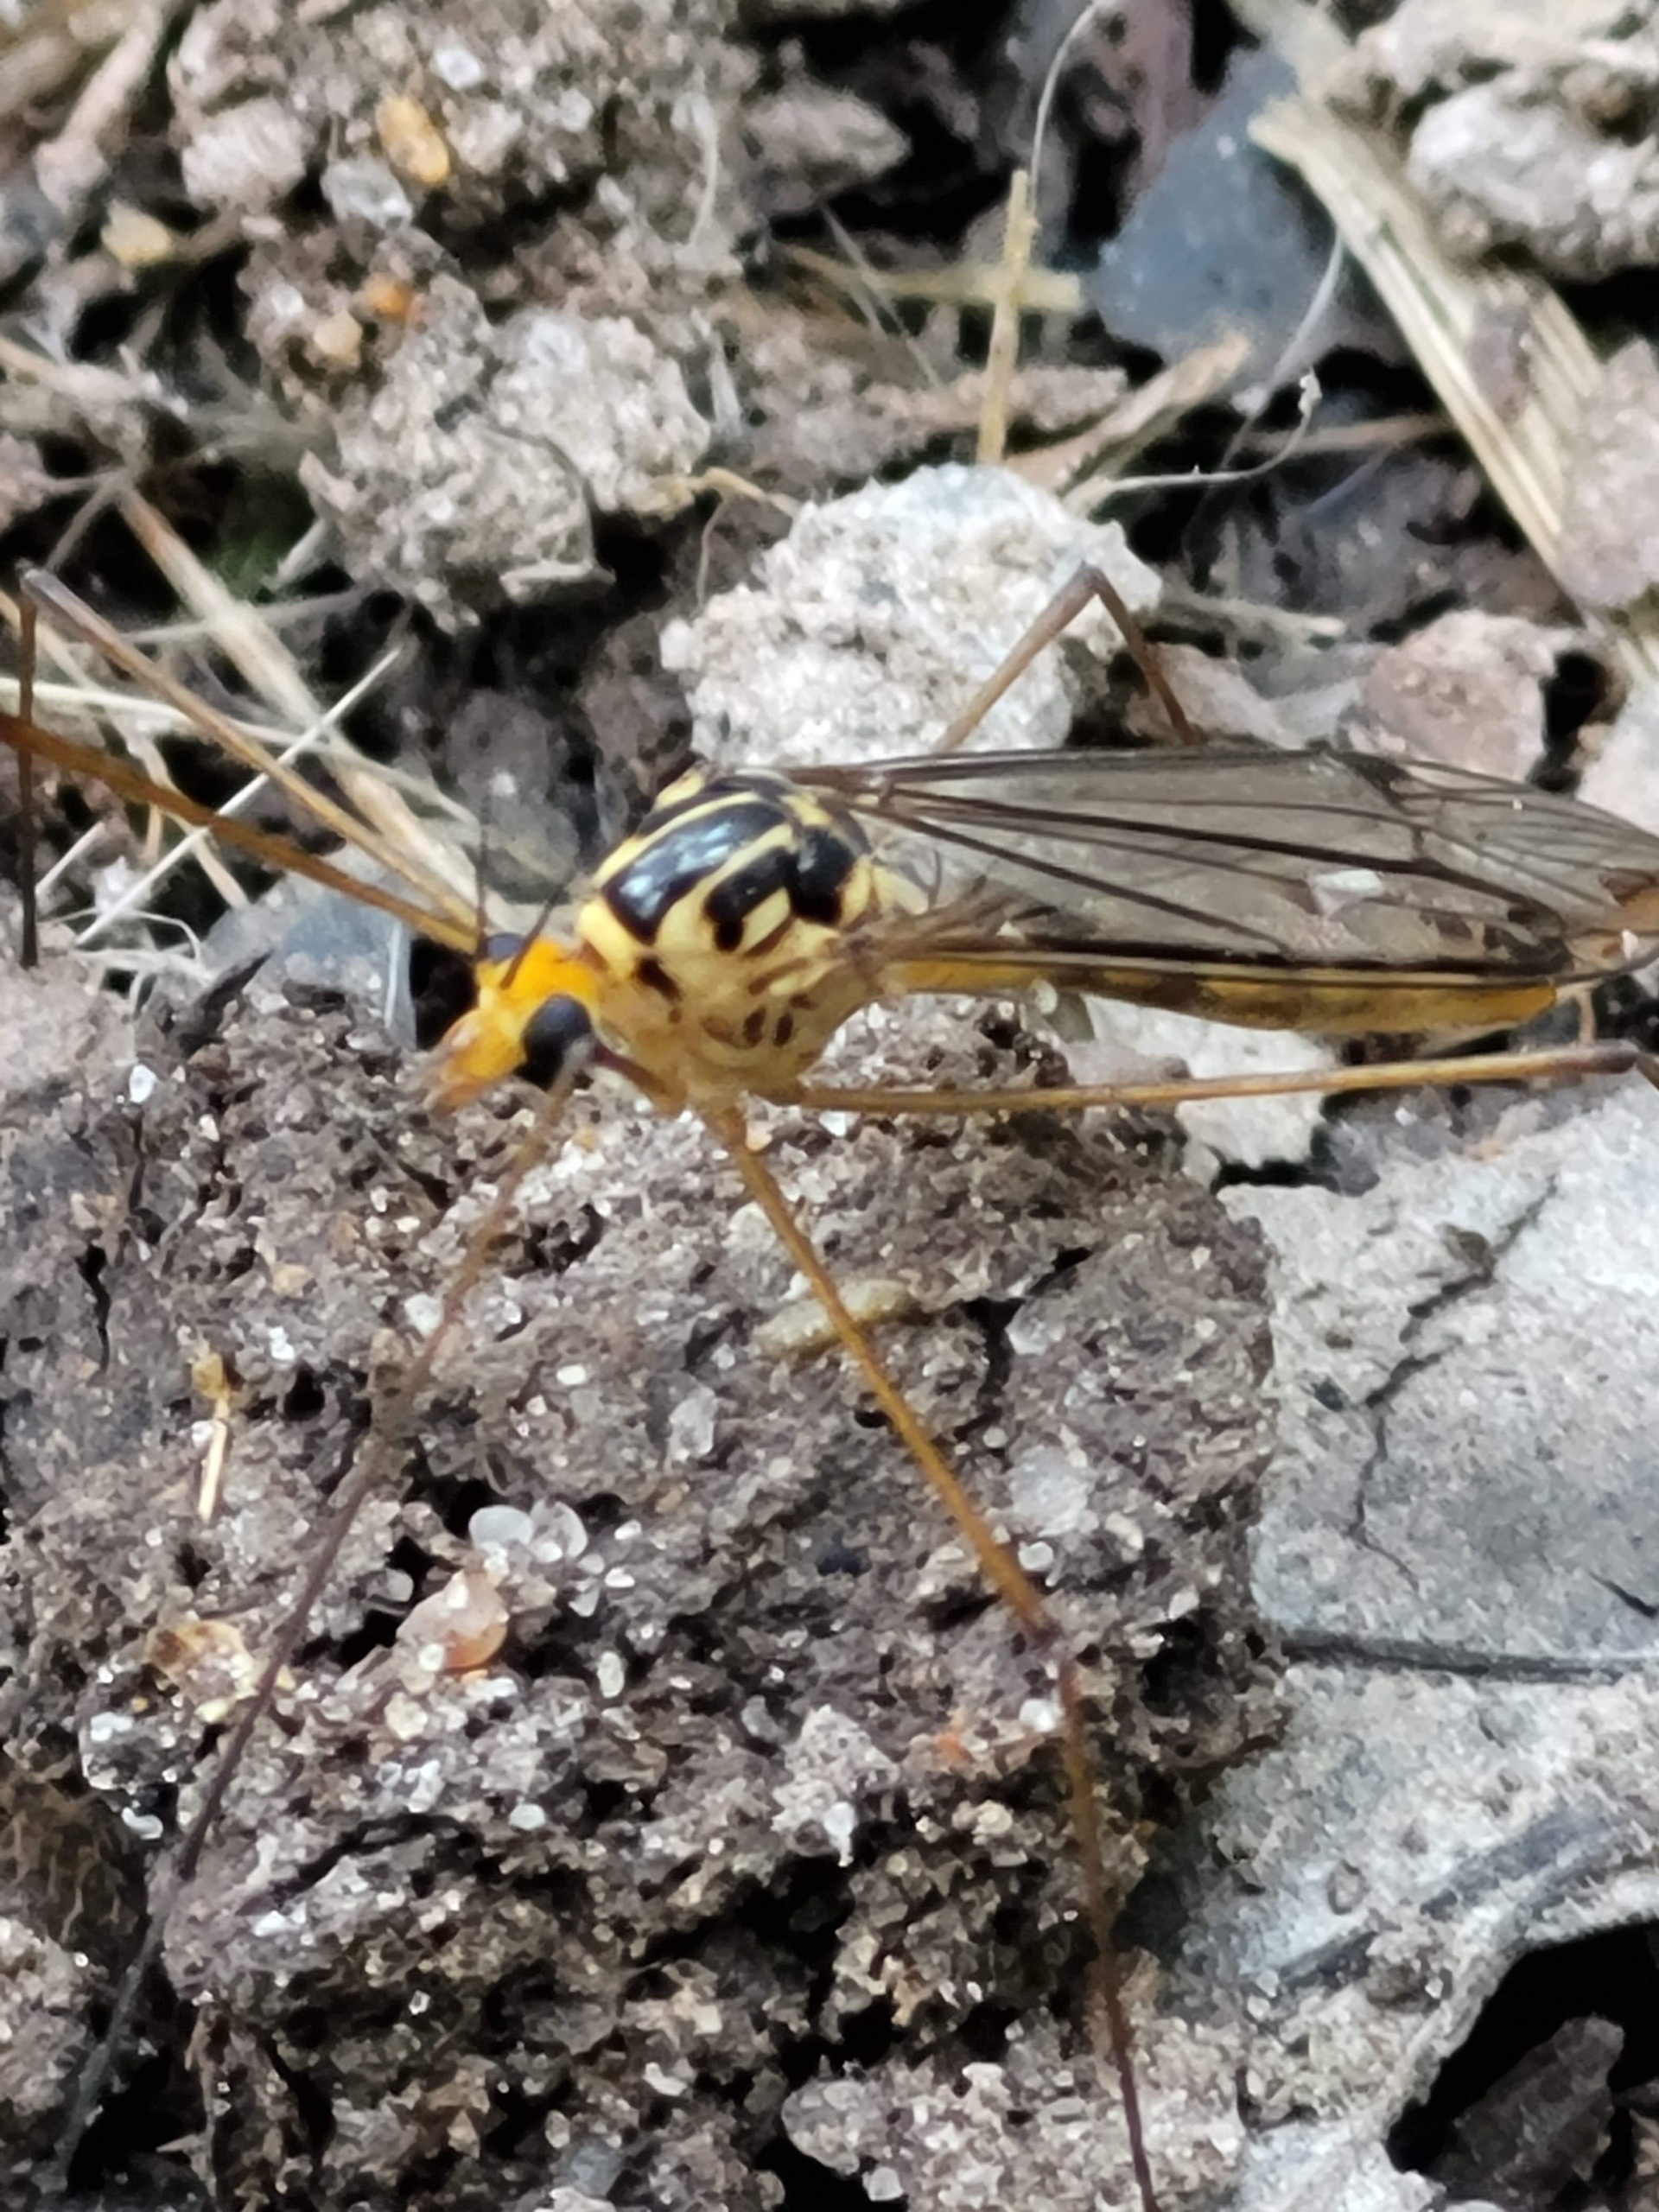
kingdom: Animalia
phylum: Arthropoda
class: Insecta
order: Diptera
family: Tipulidae
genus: Nephrotoma
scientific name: Nephrotoma flavipalpis
